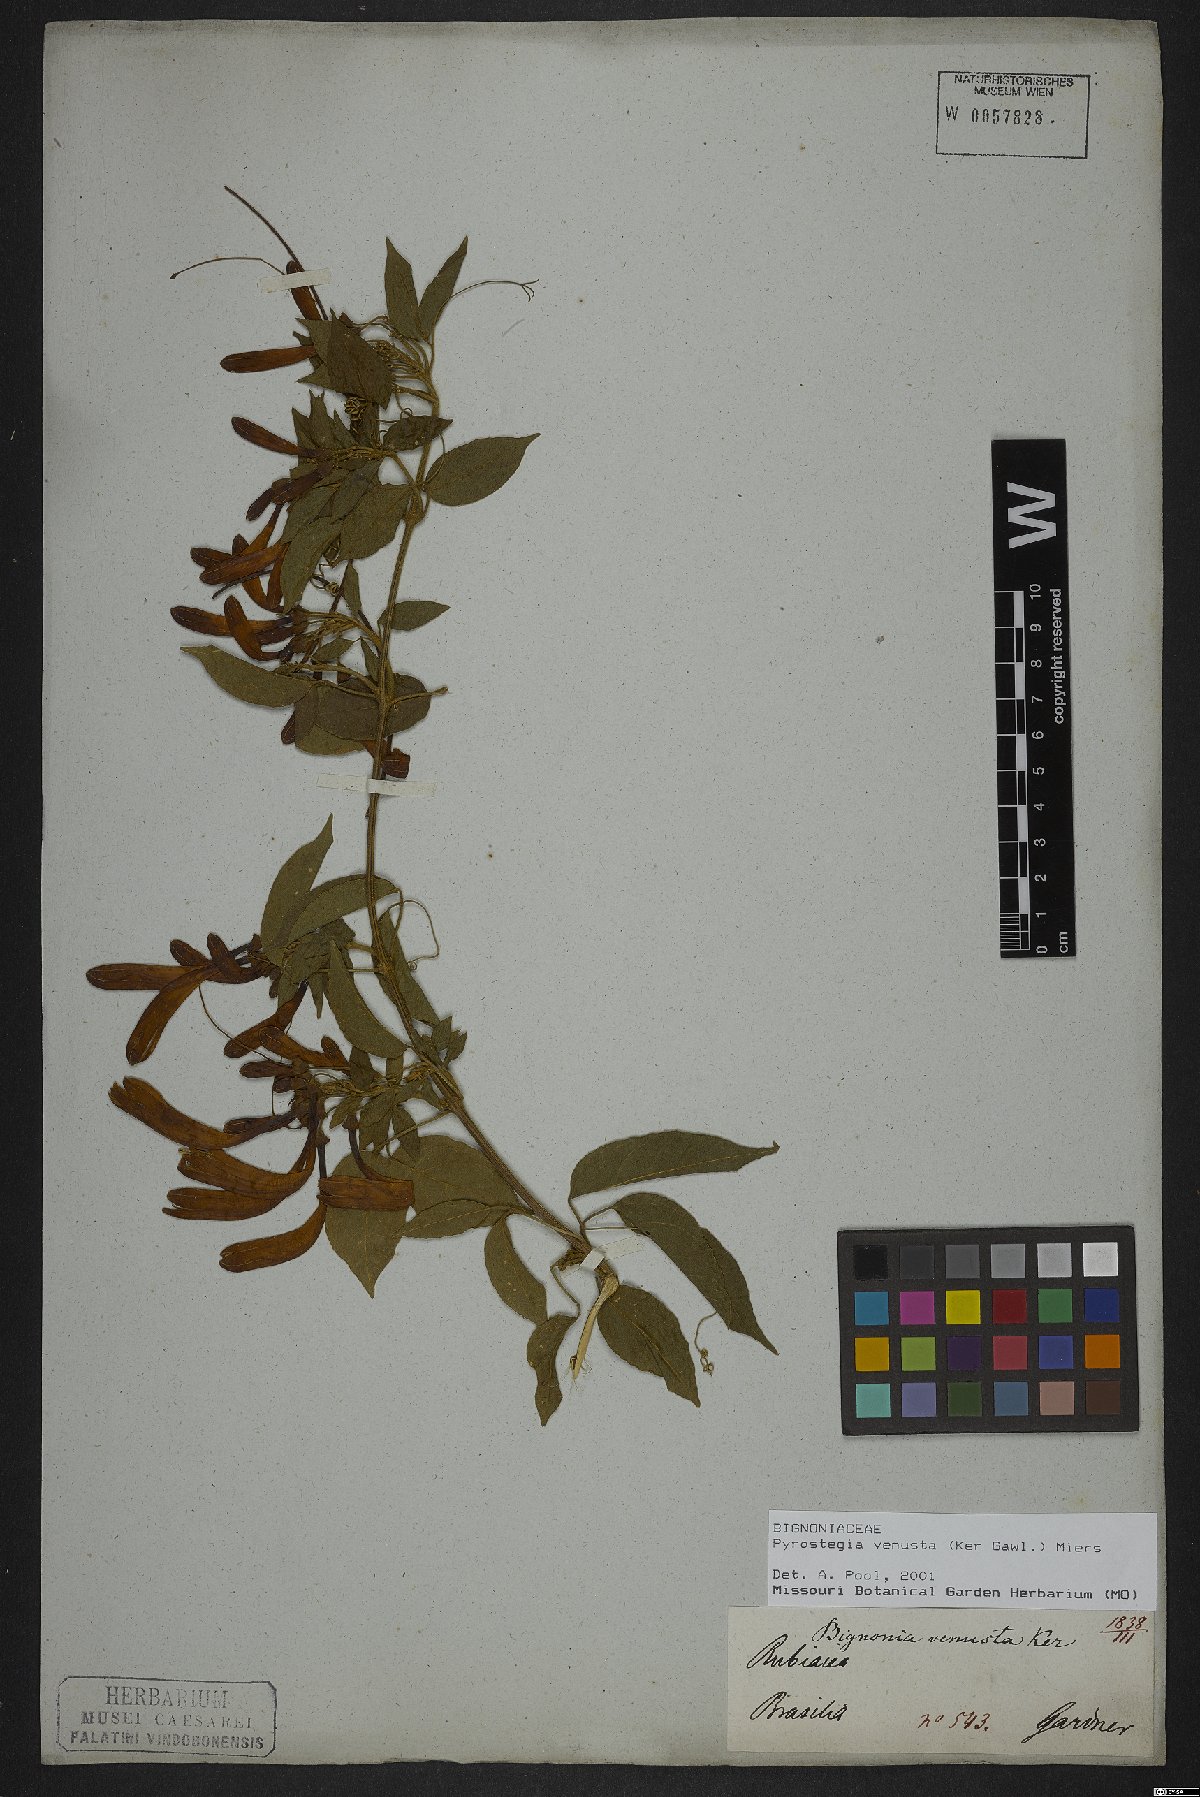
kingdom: Plantae
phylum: Tracheophyta
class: Magnoliopsida
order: Lamiales
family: Bignoniaceae
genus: Pyrostegia
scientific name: Pyrostegia venusta
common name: Flamevine
